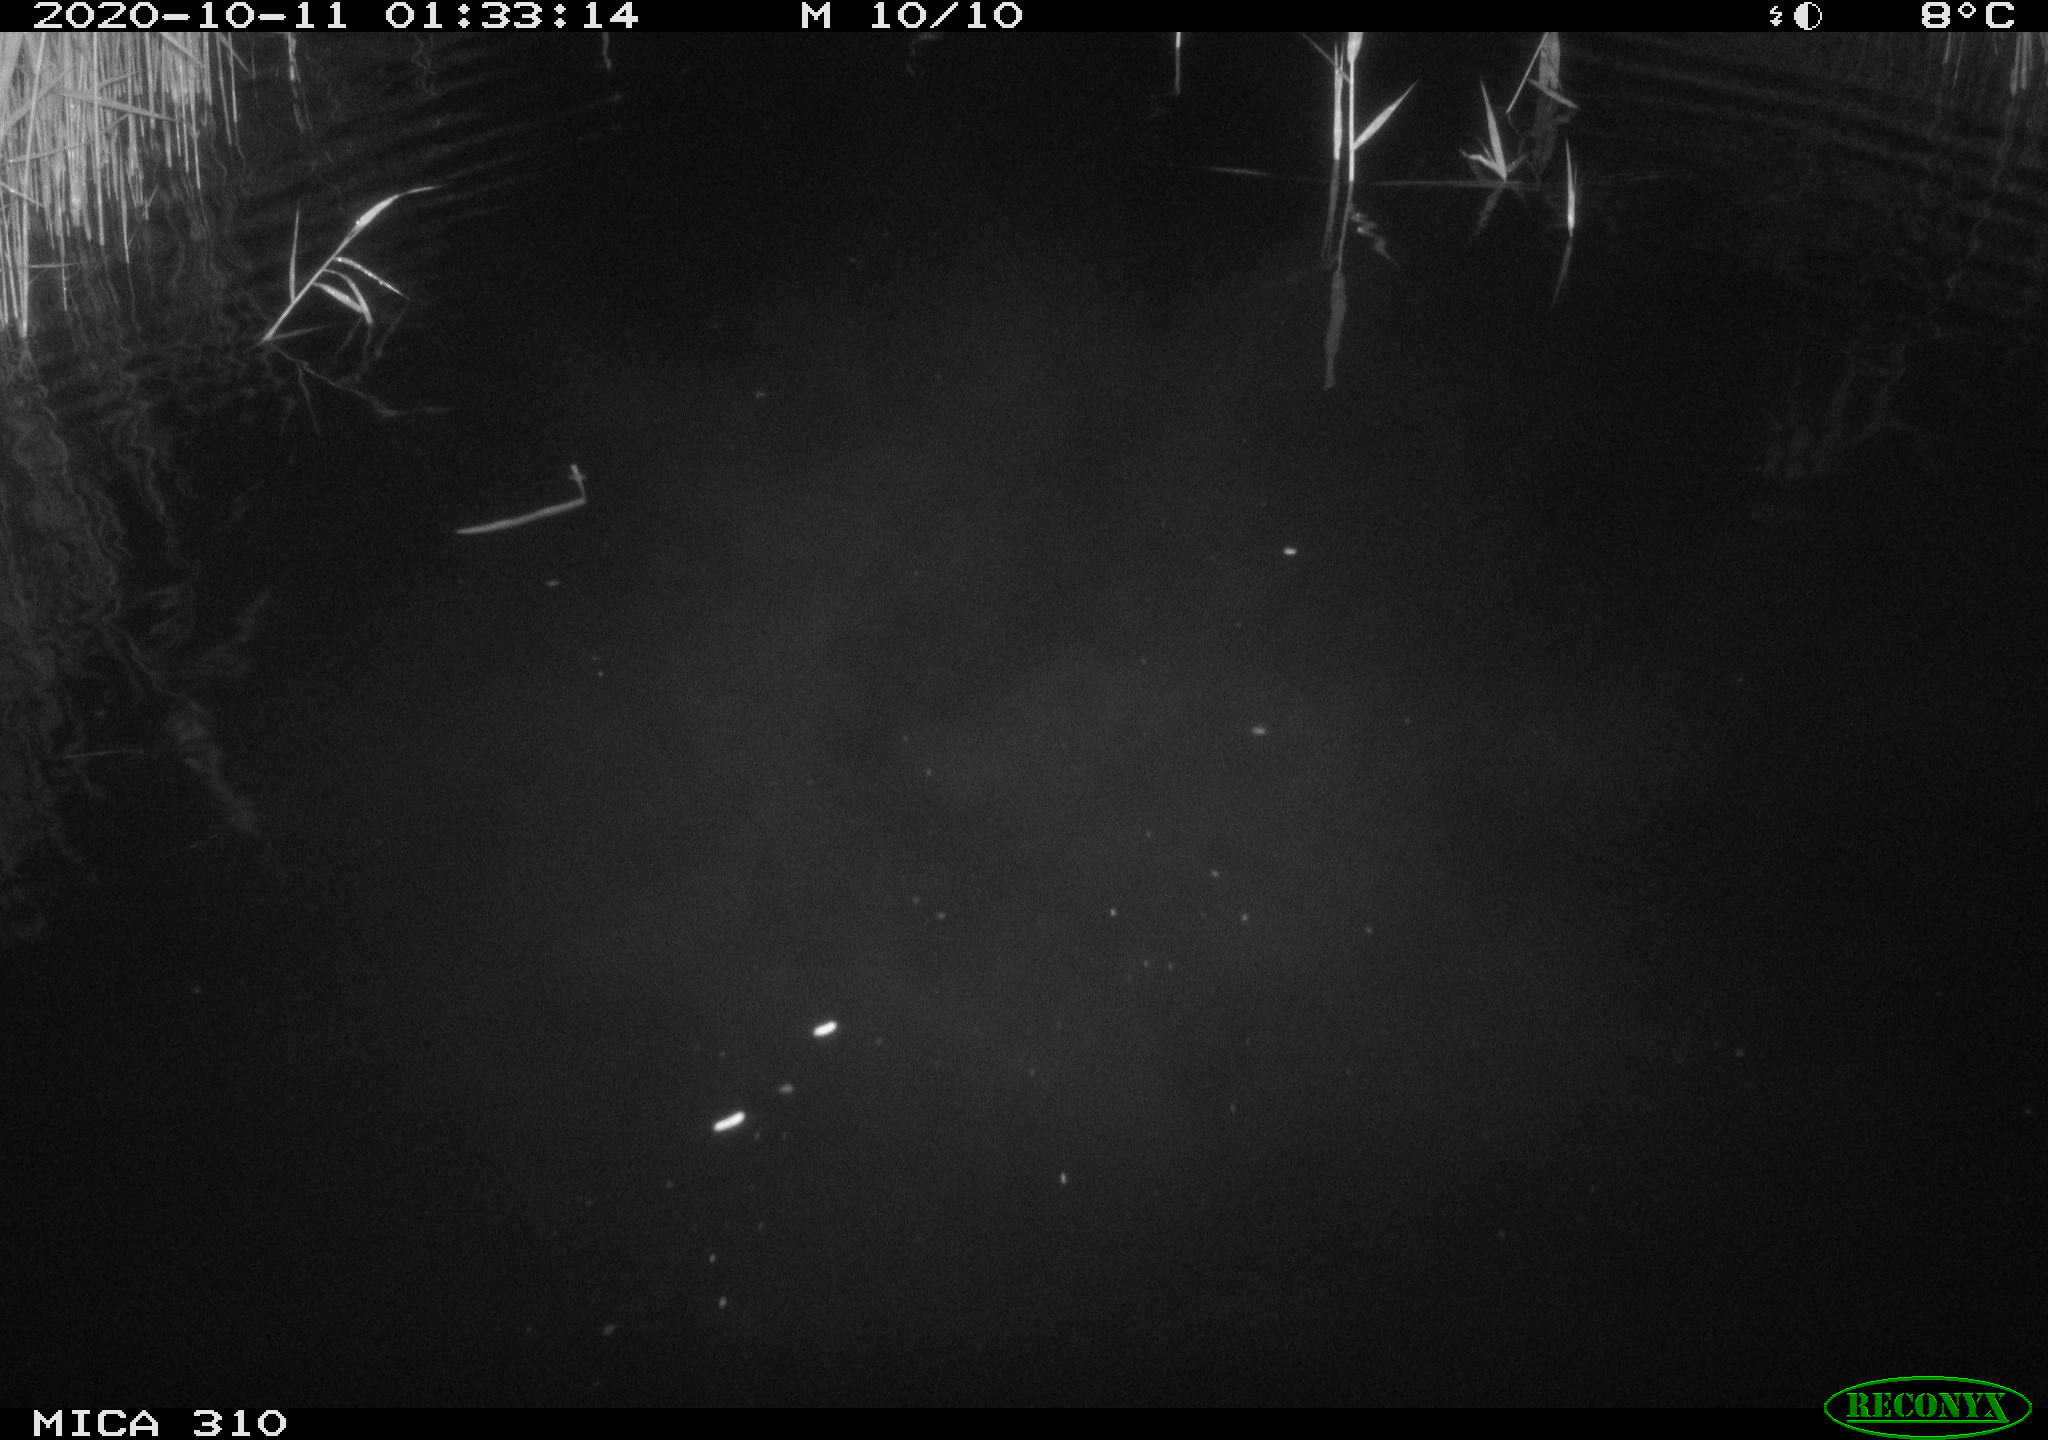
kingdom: Animalia
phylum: Chordata
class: Mammalia
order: Rodentia
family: Cricetidae
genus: Ondatra
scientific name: Ondatra zibethicus
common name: Muskrat
